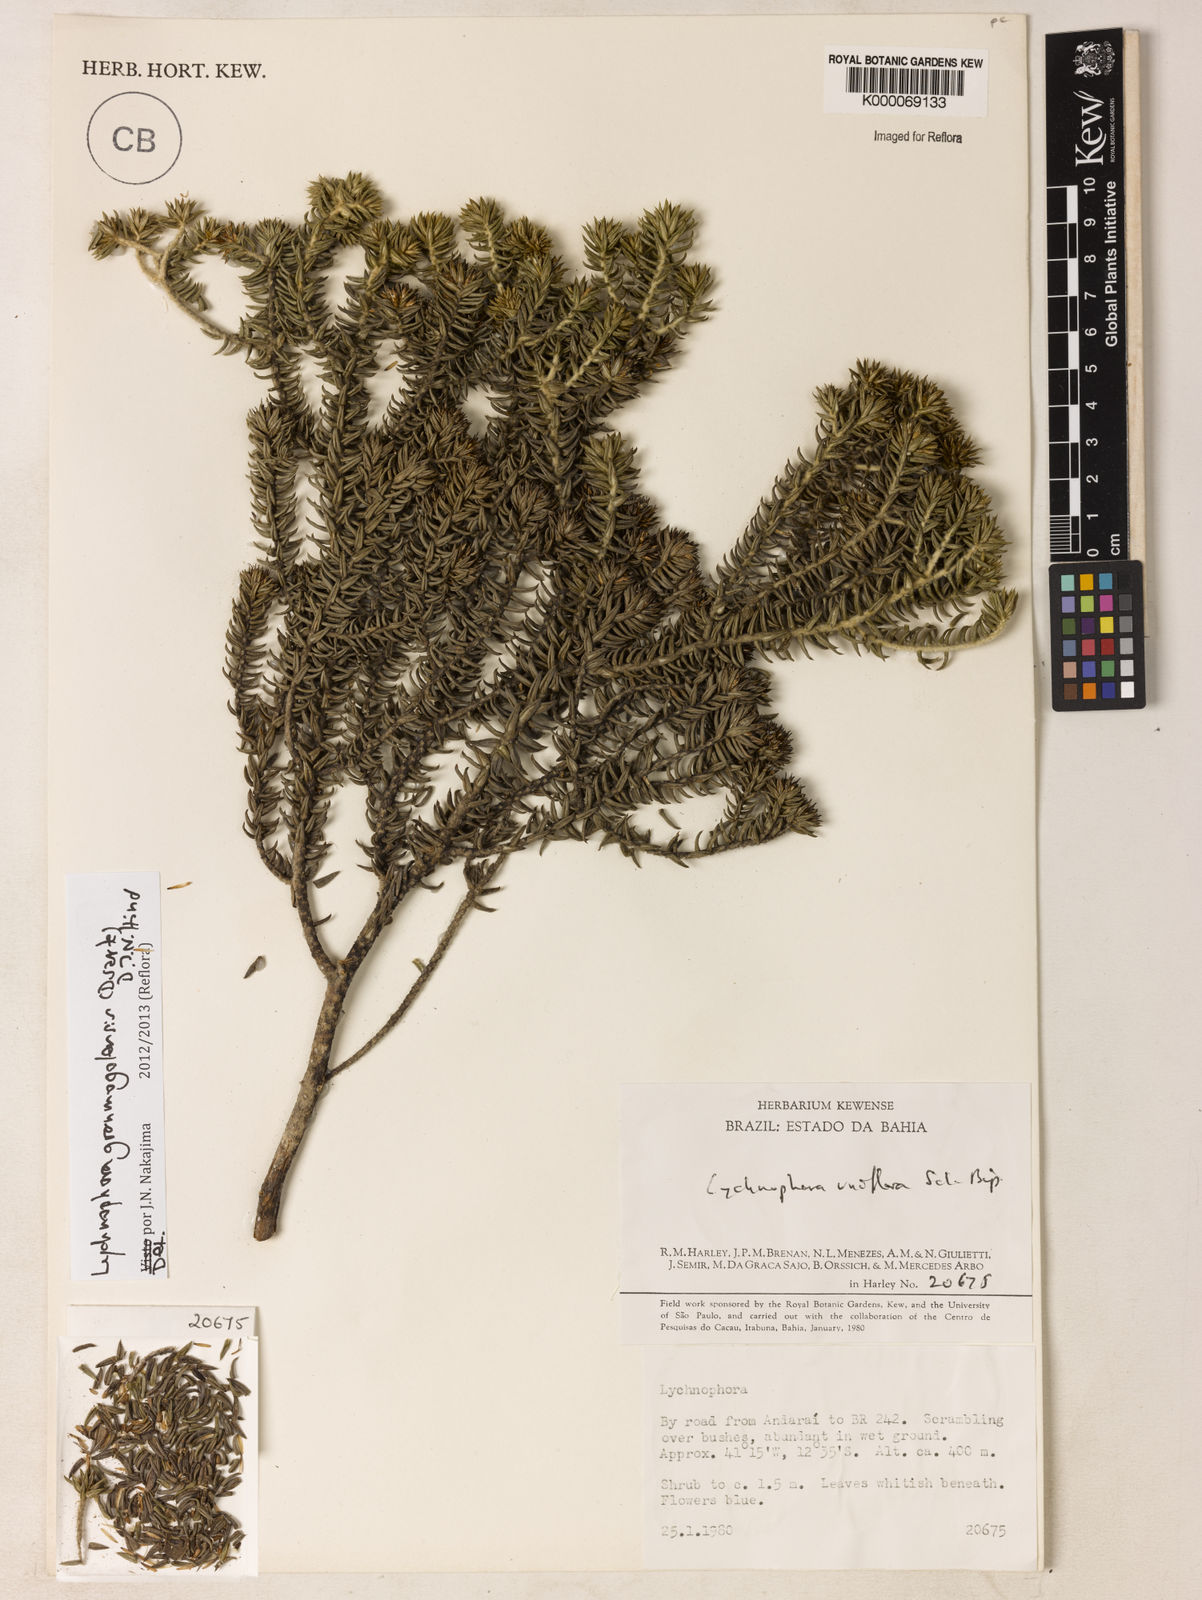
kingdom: Plantae
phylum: Tracheophyta
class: Magnoliopsida
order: Asterales
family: Asteraceae
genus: Lychnophora
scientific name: Lychnophora uniflora
